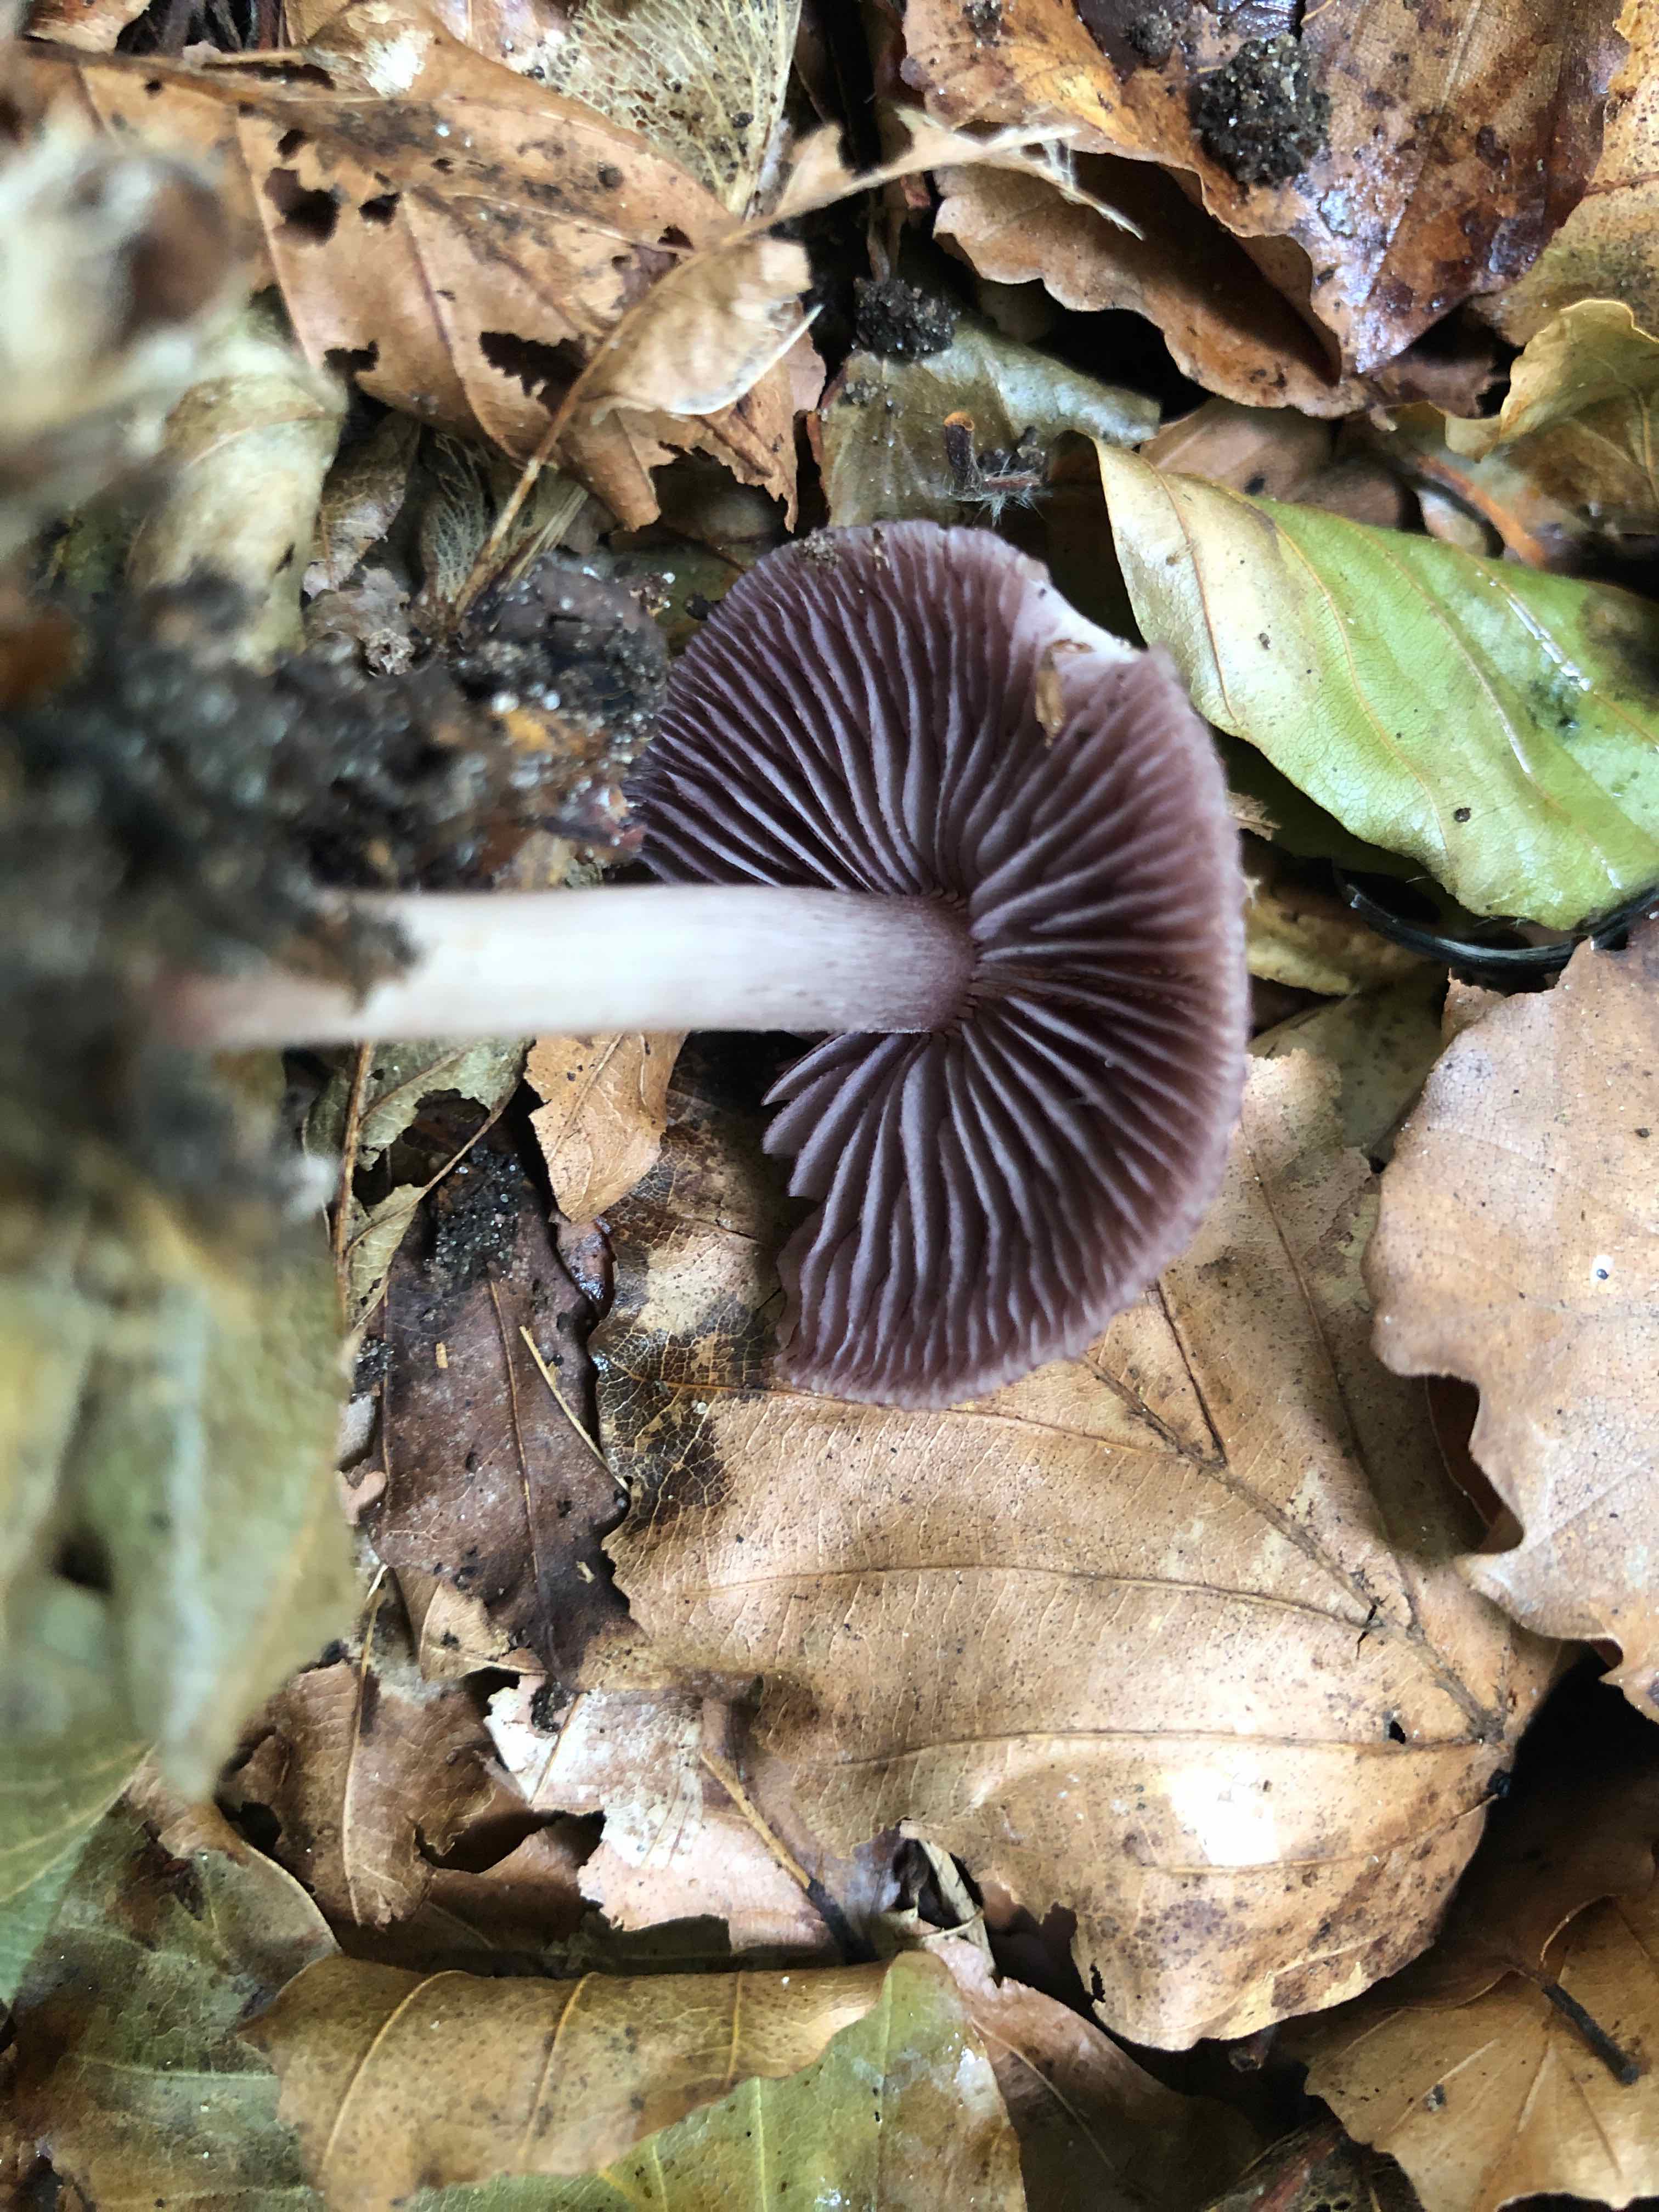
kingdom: Fungi
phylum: Basidiomycota
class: Agaricomycetes
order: Agaricales
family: Mycenaceae
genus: Mycena
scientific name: Mycena pelianthina
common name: mørkbladet huesvamp
